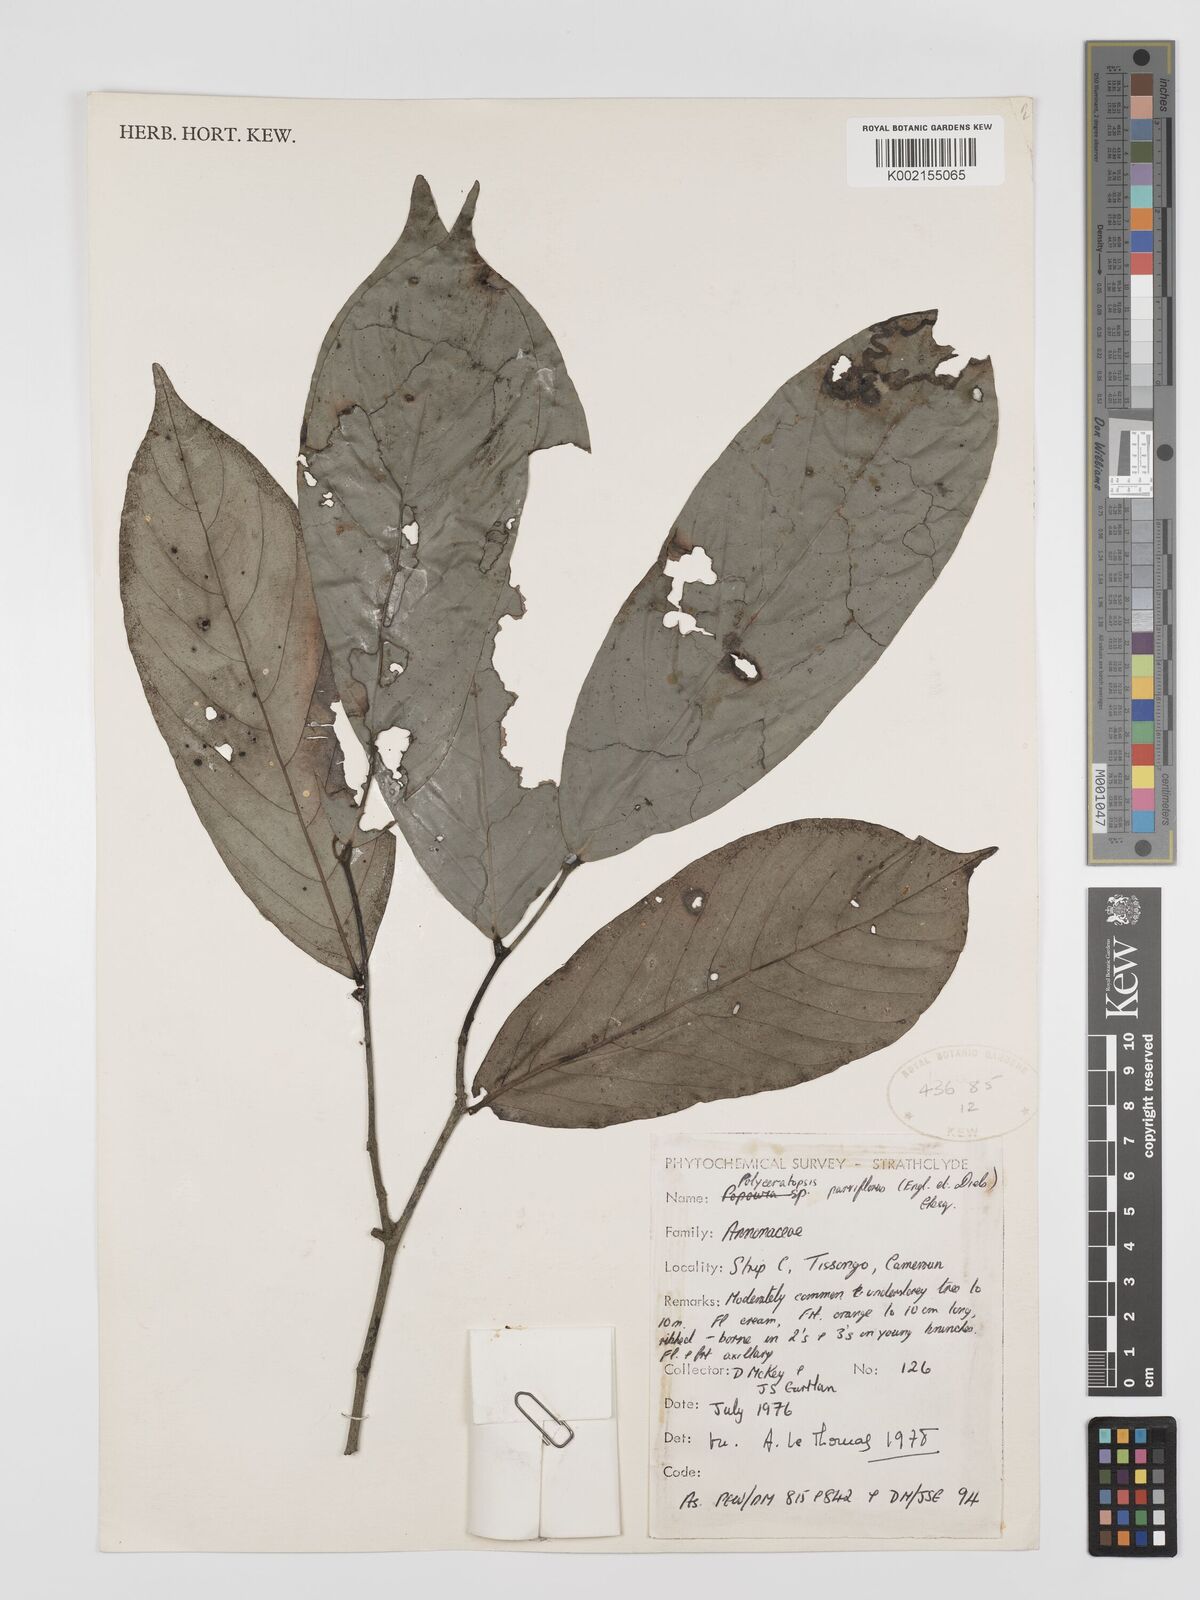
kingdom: Plantae
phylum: Tracheophyta
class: Magnoliopsida
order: Magnoliales
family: Annonaceae
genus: Polyceratocarpus
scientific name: Polyceratocarpus parviflorus
